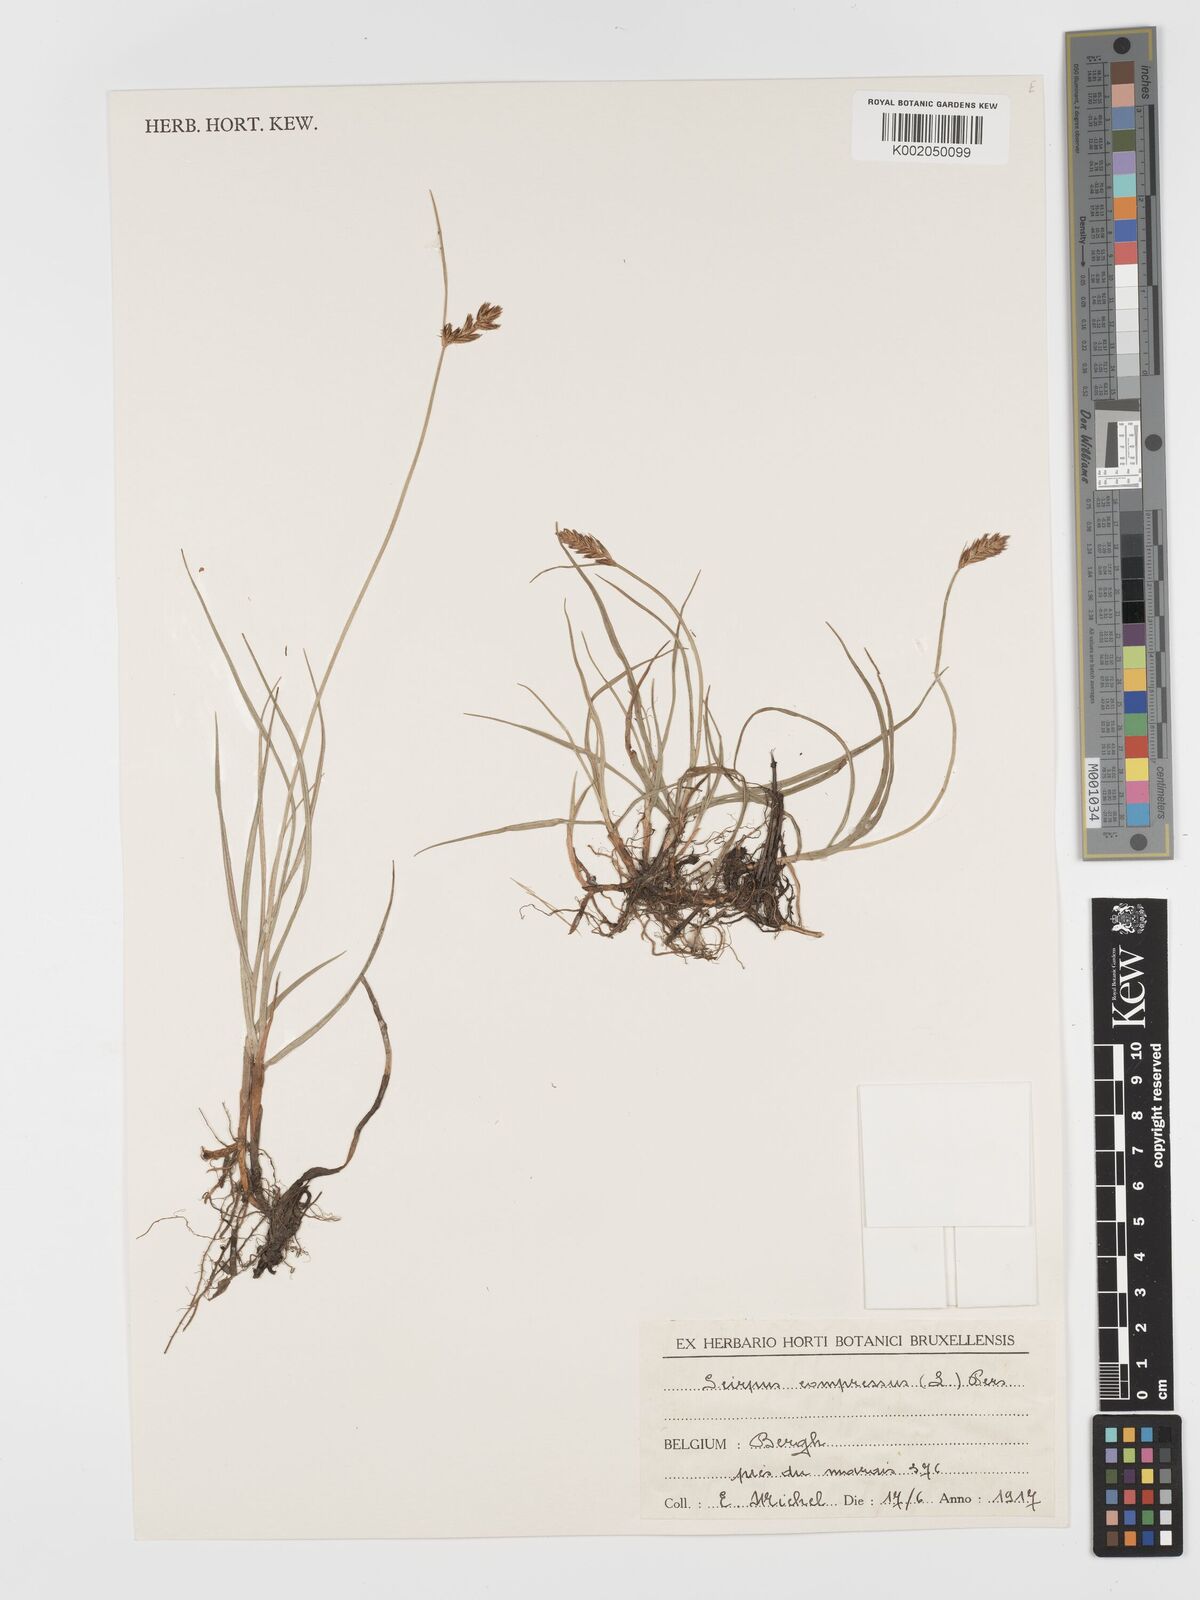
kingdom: Plantae
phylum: Tracheophyta
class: Liliopsida
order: Poales
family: Cyperaceae
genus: Blysmus
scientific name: Blysmus compressus
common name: Flat-sedge
